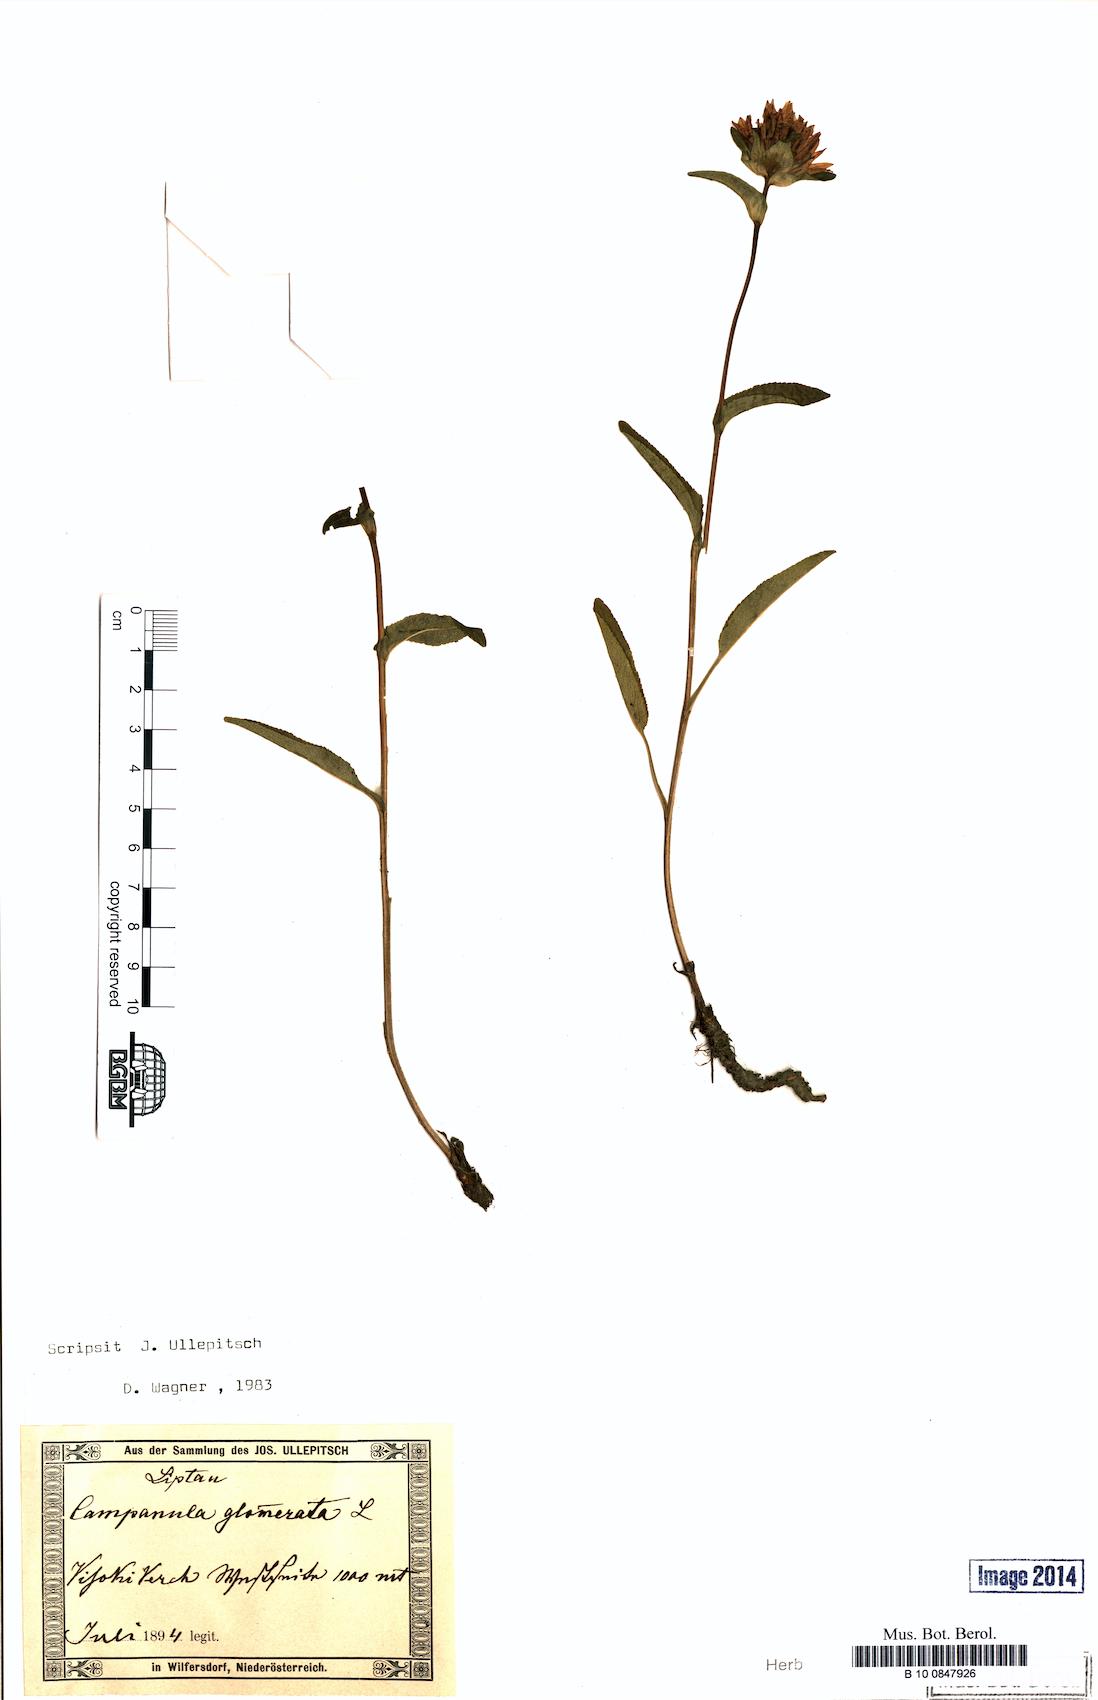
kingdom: Plantae
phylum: Tracheophyta
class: Magnoliopsida
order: Asterales
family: Campanulaceae
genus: Campanula
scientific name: Campanula glomerata
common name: Clustered bellflower
